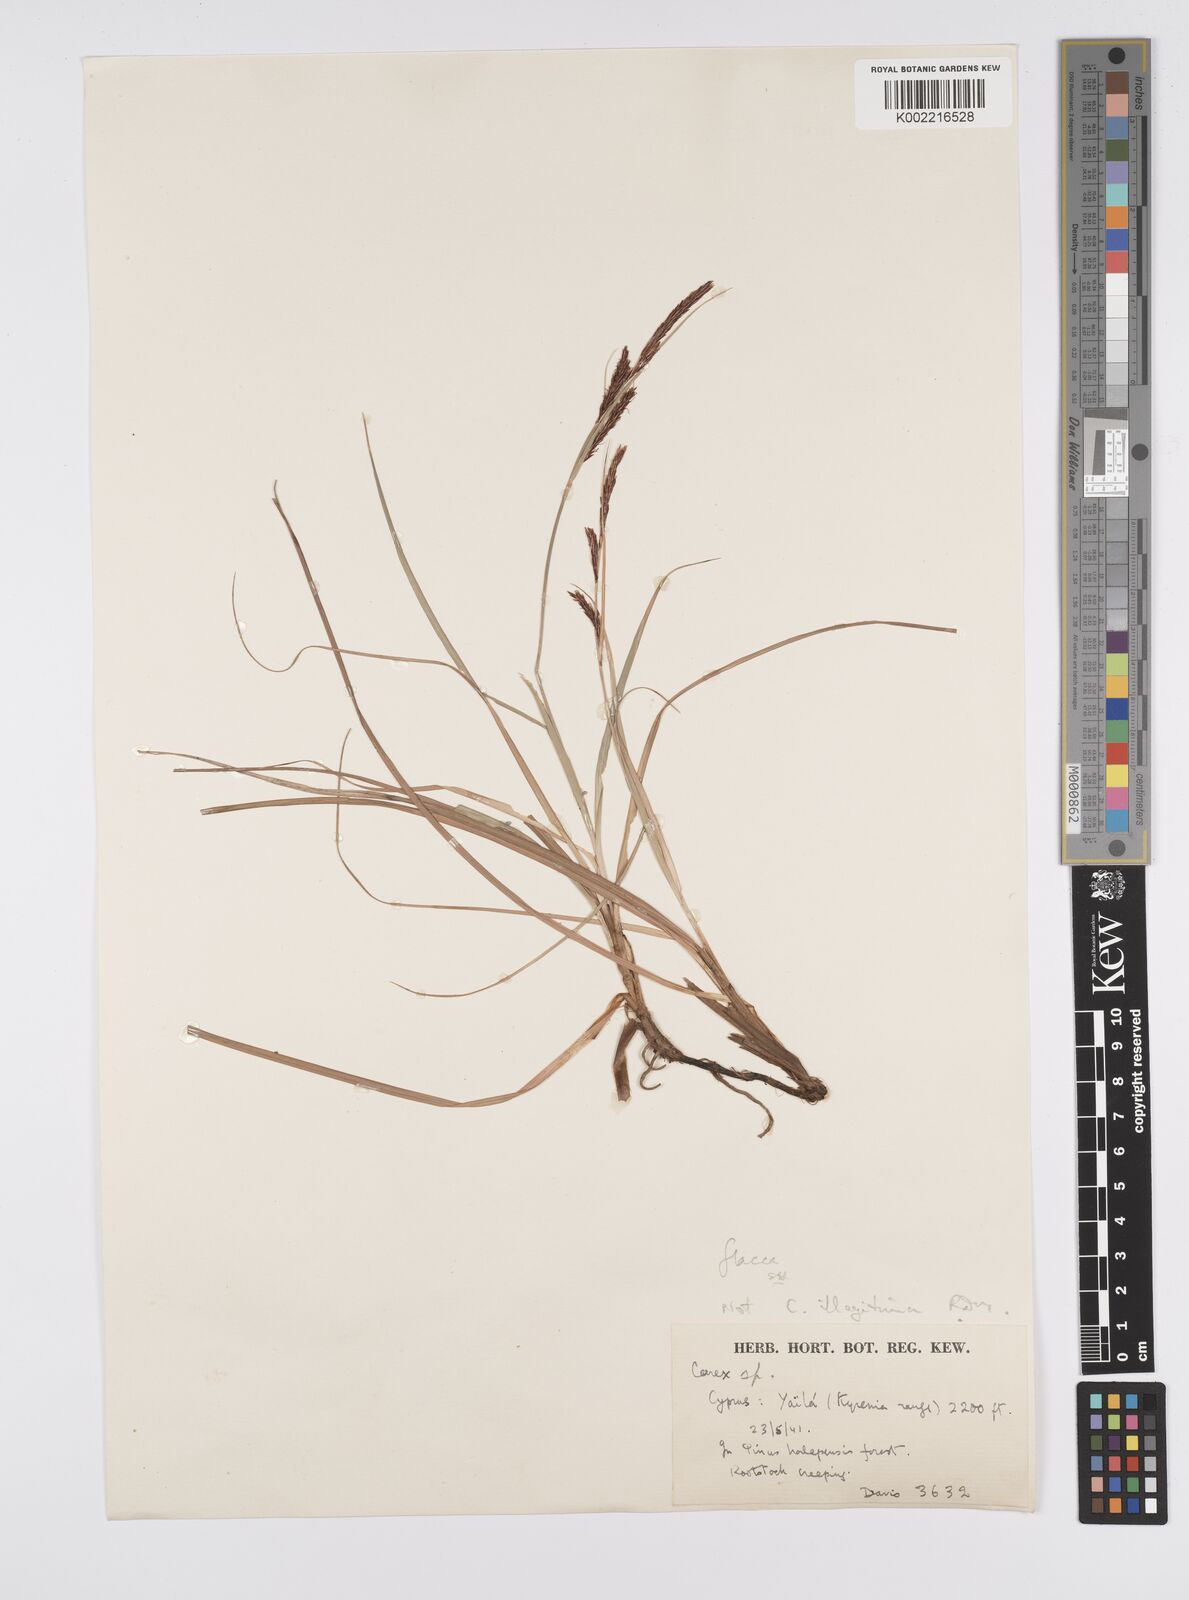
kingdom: Plantae
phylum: Tracheophyta
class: Liliopsida
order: Poales
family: Cyperaceae
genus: Carex
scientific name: Carex flacca
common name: Glaucous sedge
